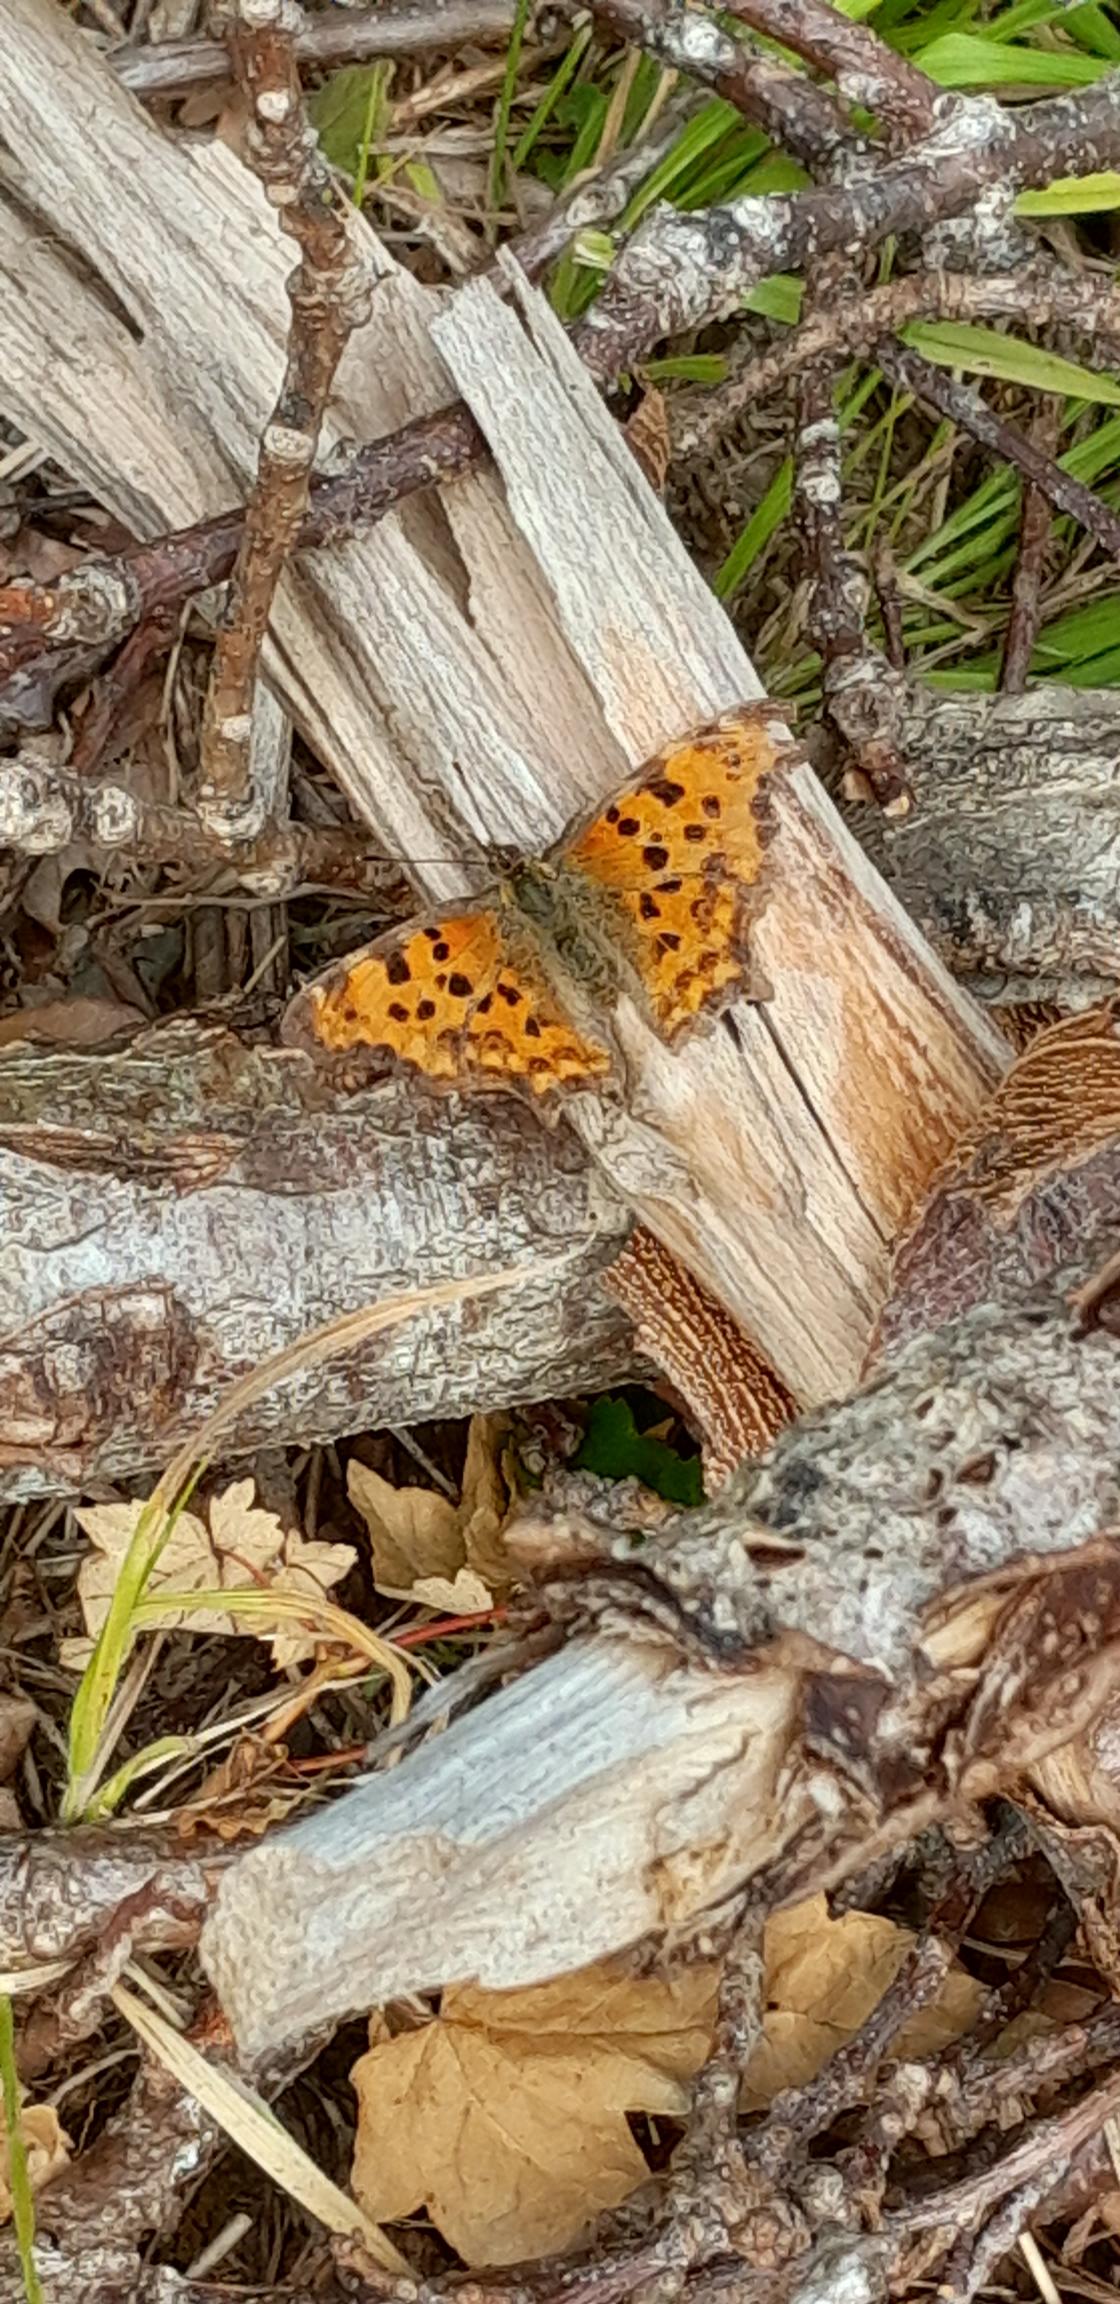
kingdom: Animalia
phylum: Arthropoda
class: Insecta
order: Lepidoptera
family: Nymphalidae
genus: Polygonia
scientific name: Polygonia c-album
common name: Det hvide C
